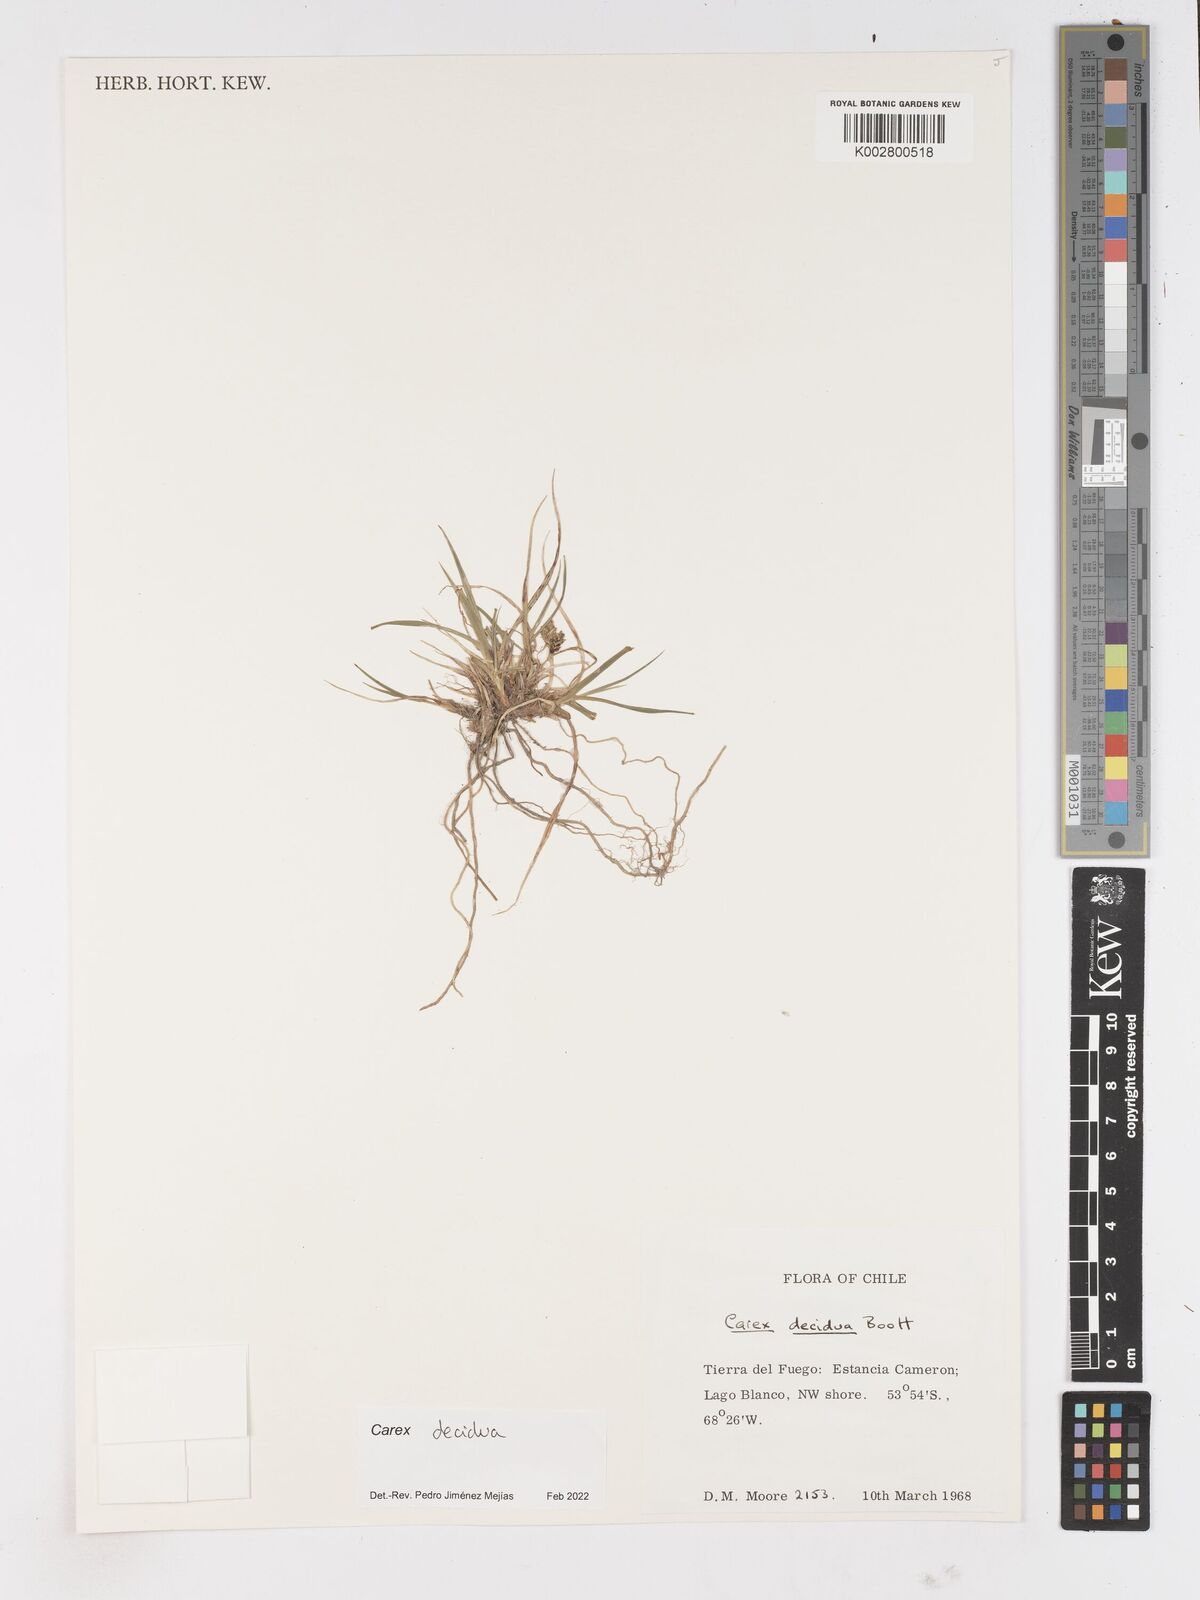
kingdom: Plantae
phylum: Tracheophyta
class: Liliopsida
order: Poales
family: Cyperaceae
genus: Carex
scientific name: Carex decidua
